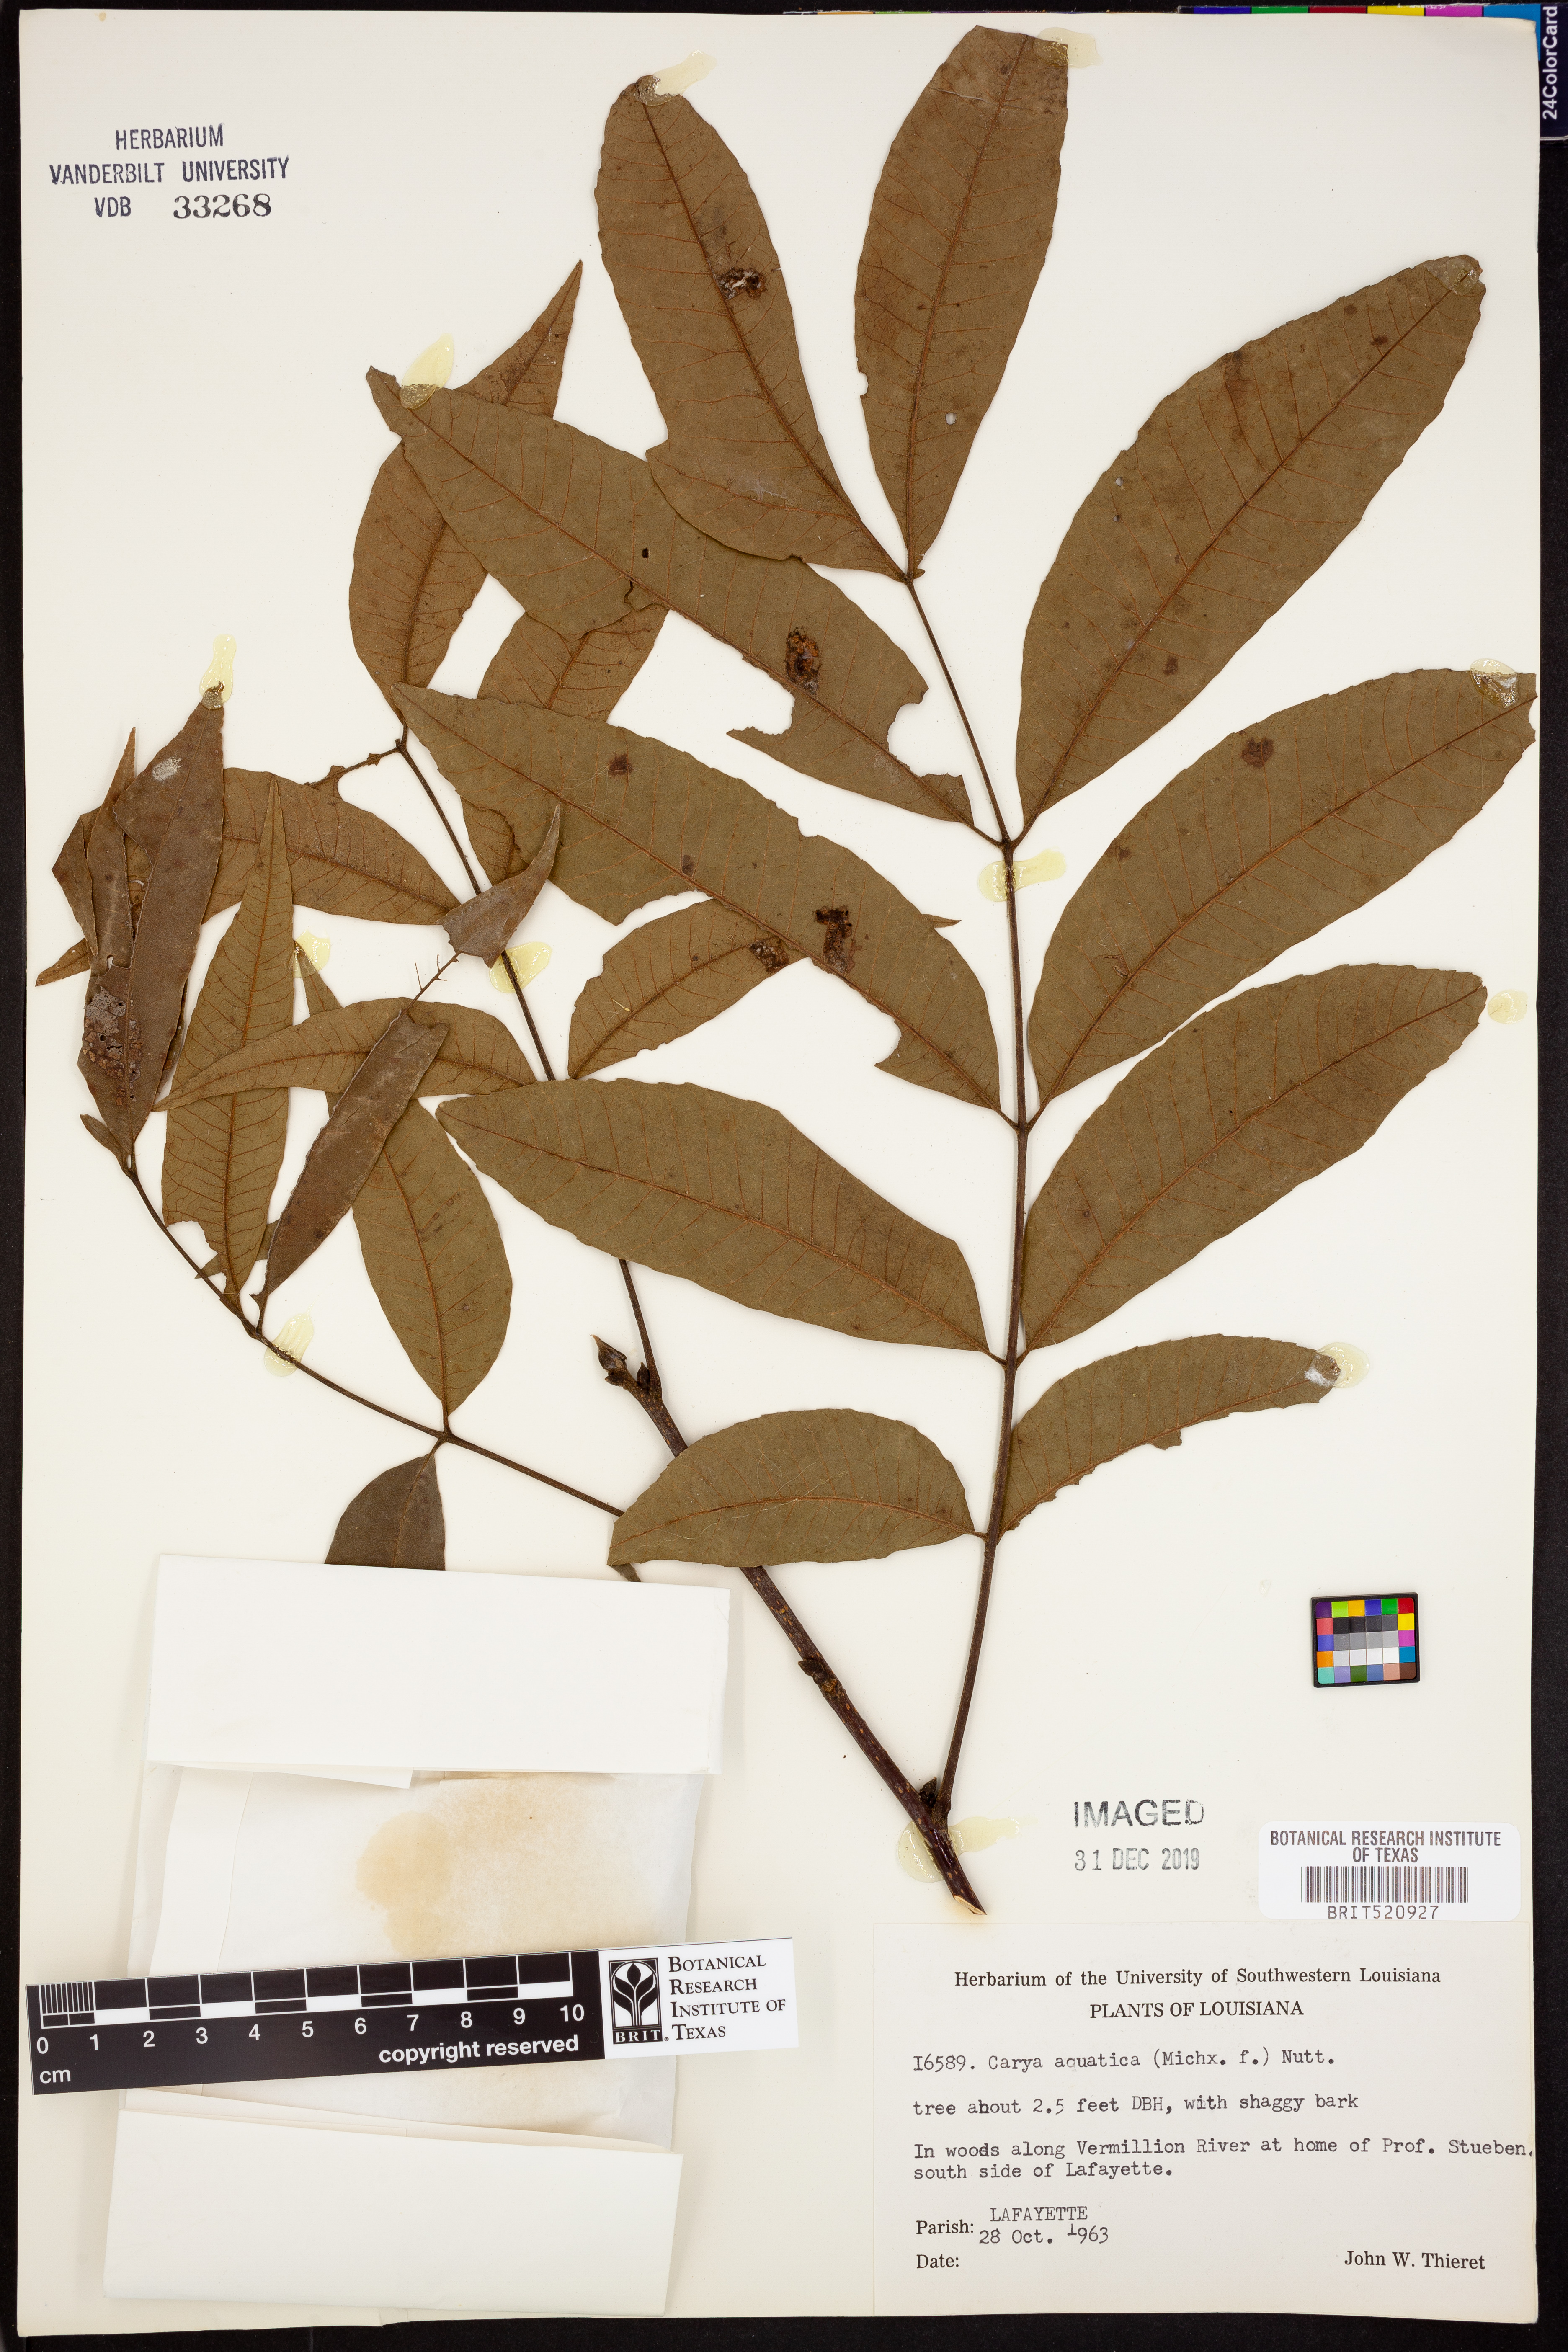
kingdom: Plantae
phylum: Tracheophyta
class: Magnoliopsida
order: Fagales
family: Juglandaceae
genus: Carya
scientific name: Carya aquatica
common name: Water hickory
